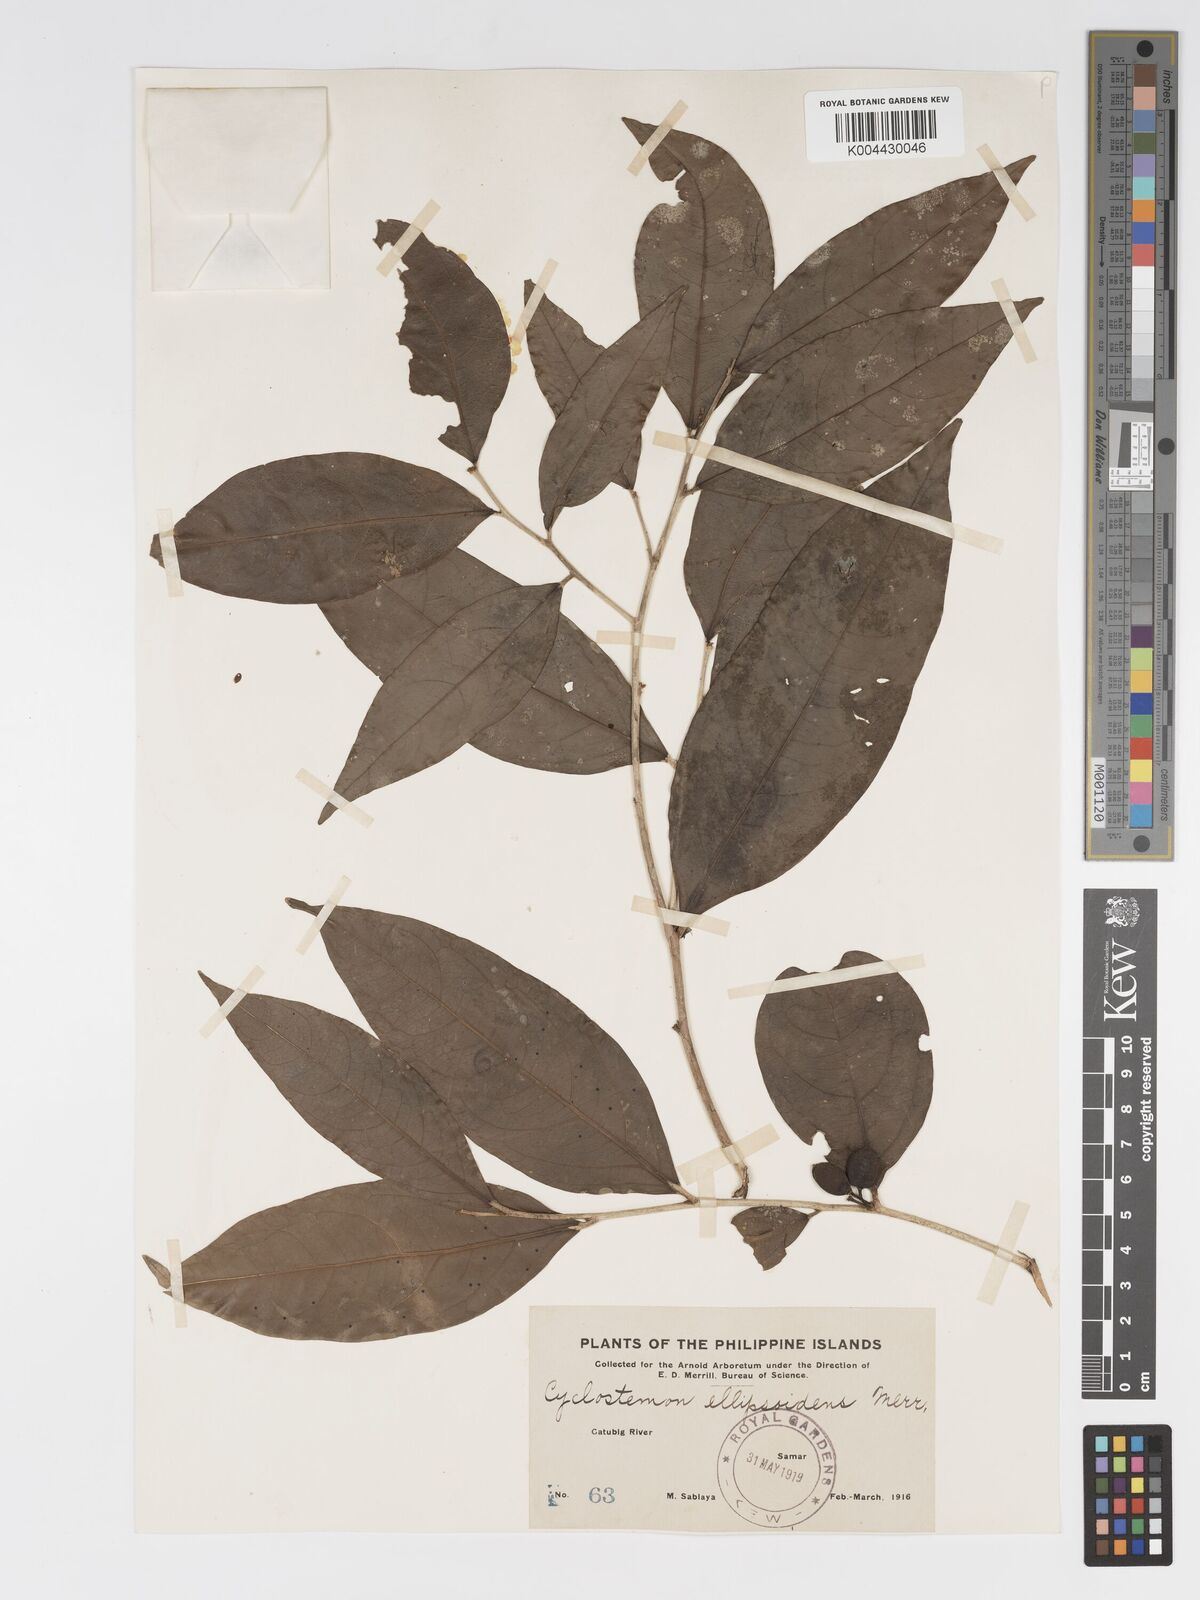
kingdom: Plantae
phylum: Tracheophyta
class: Magnoliopsida
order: Malpighiales
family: Putranjivaceae
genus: Drypetes
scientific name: Drypetes celebica
